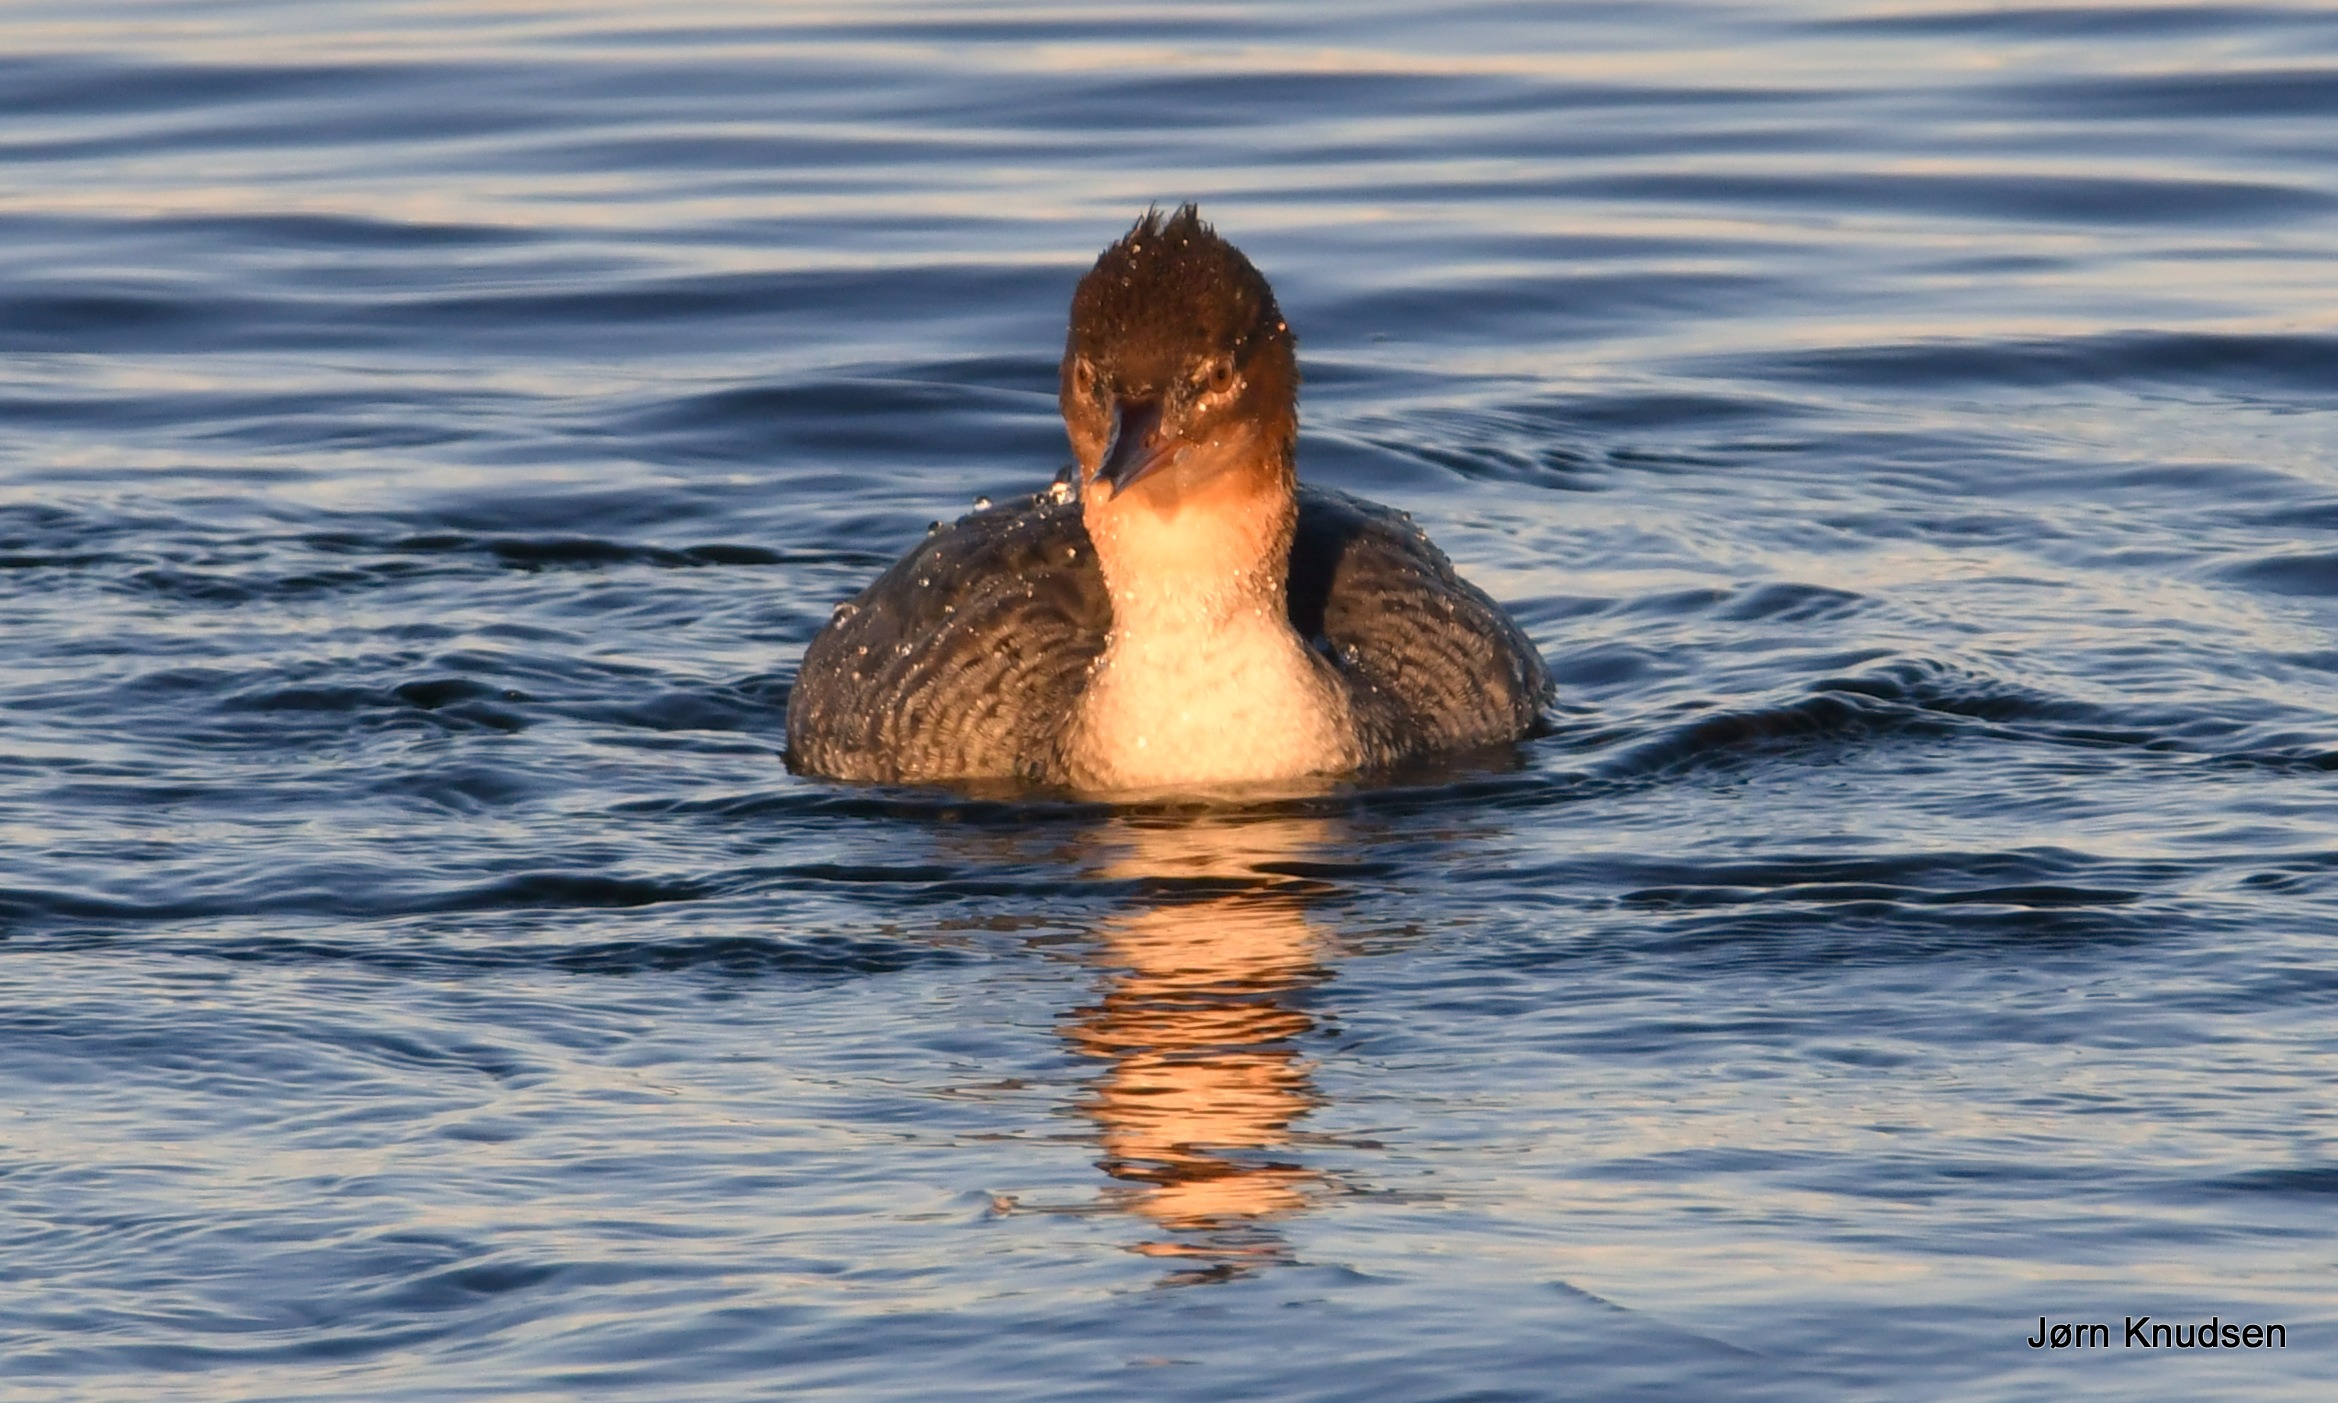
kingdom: Animalia
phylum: Chordata
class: Aves
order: Anseriformes
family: Anatidae
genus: Mergus
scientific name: Mergus serrator
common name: Toppet skallesluger
